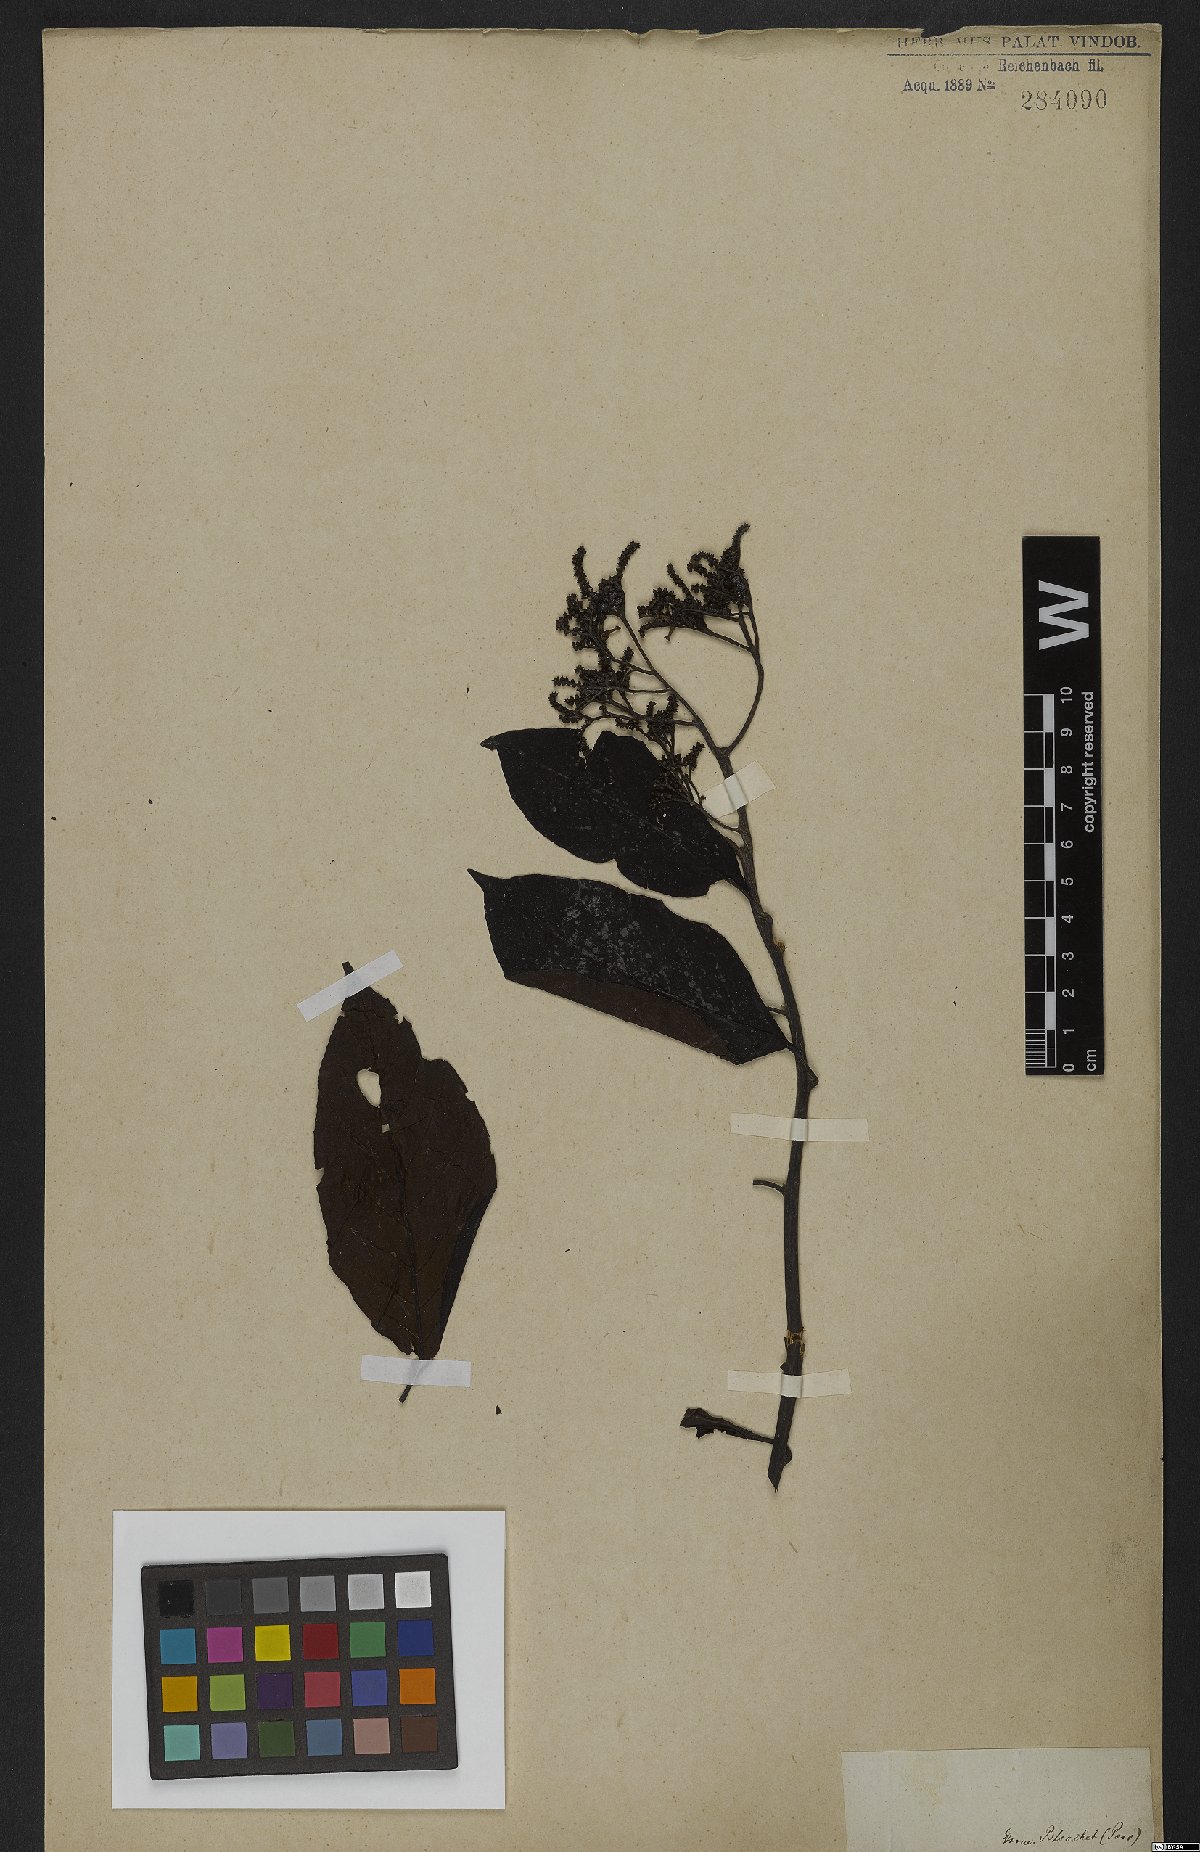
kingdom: Plantae
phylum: Tracheophyta
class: Magnoliopsida
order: Boraginales
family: Heliotropiaceae
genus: Heliotropium
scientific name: Heliotropium verdcourtii
